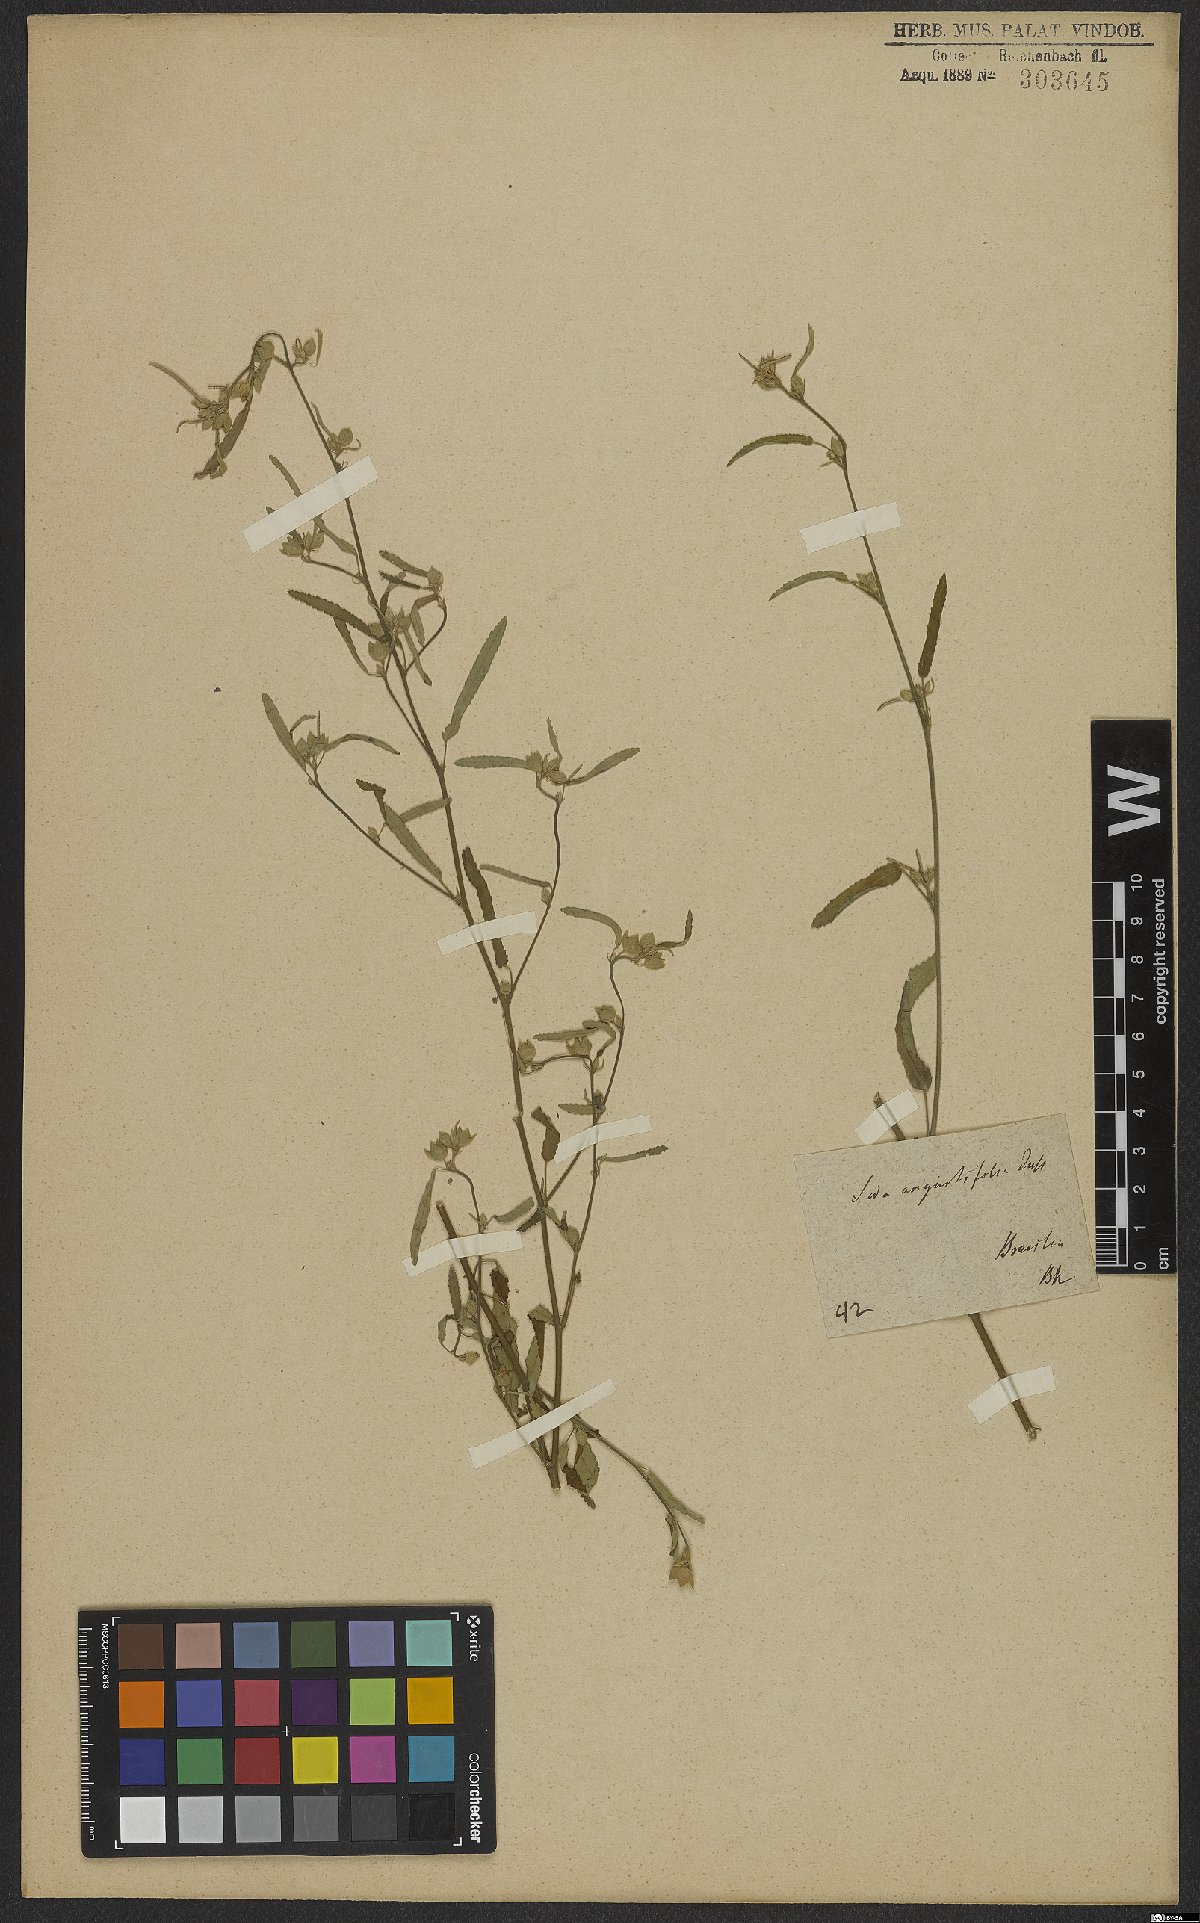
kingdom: Plantae
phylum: Tracheophyta
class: Magnoliopsida
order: Malvales
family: Malvaceae
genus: Sida
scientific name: Sida spinosa
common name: Prickly fanpetals
